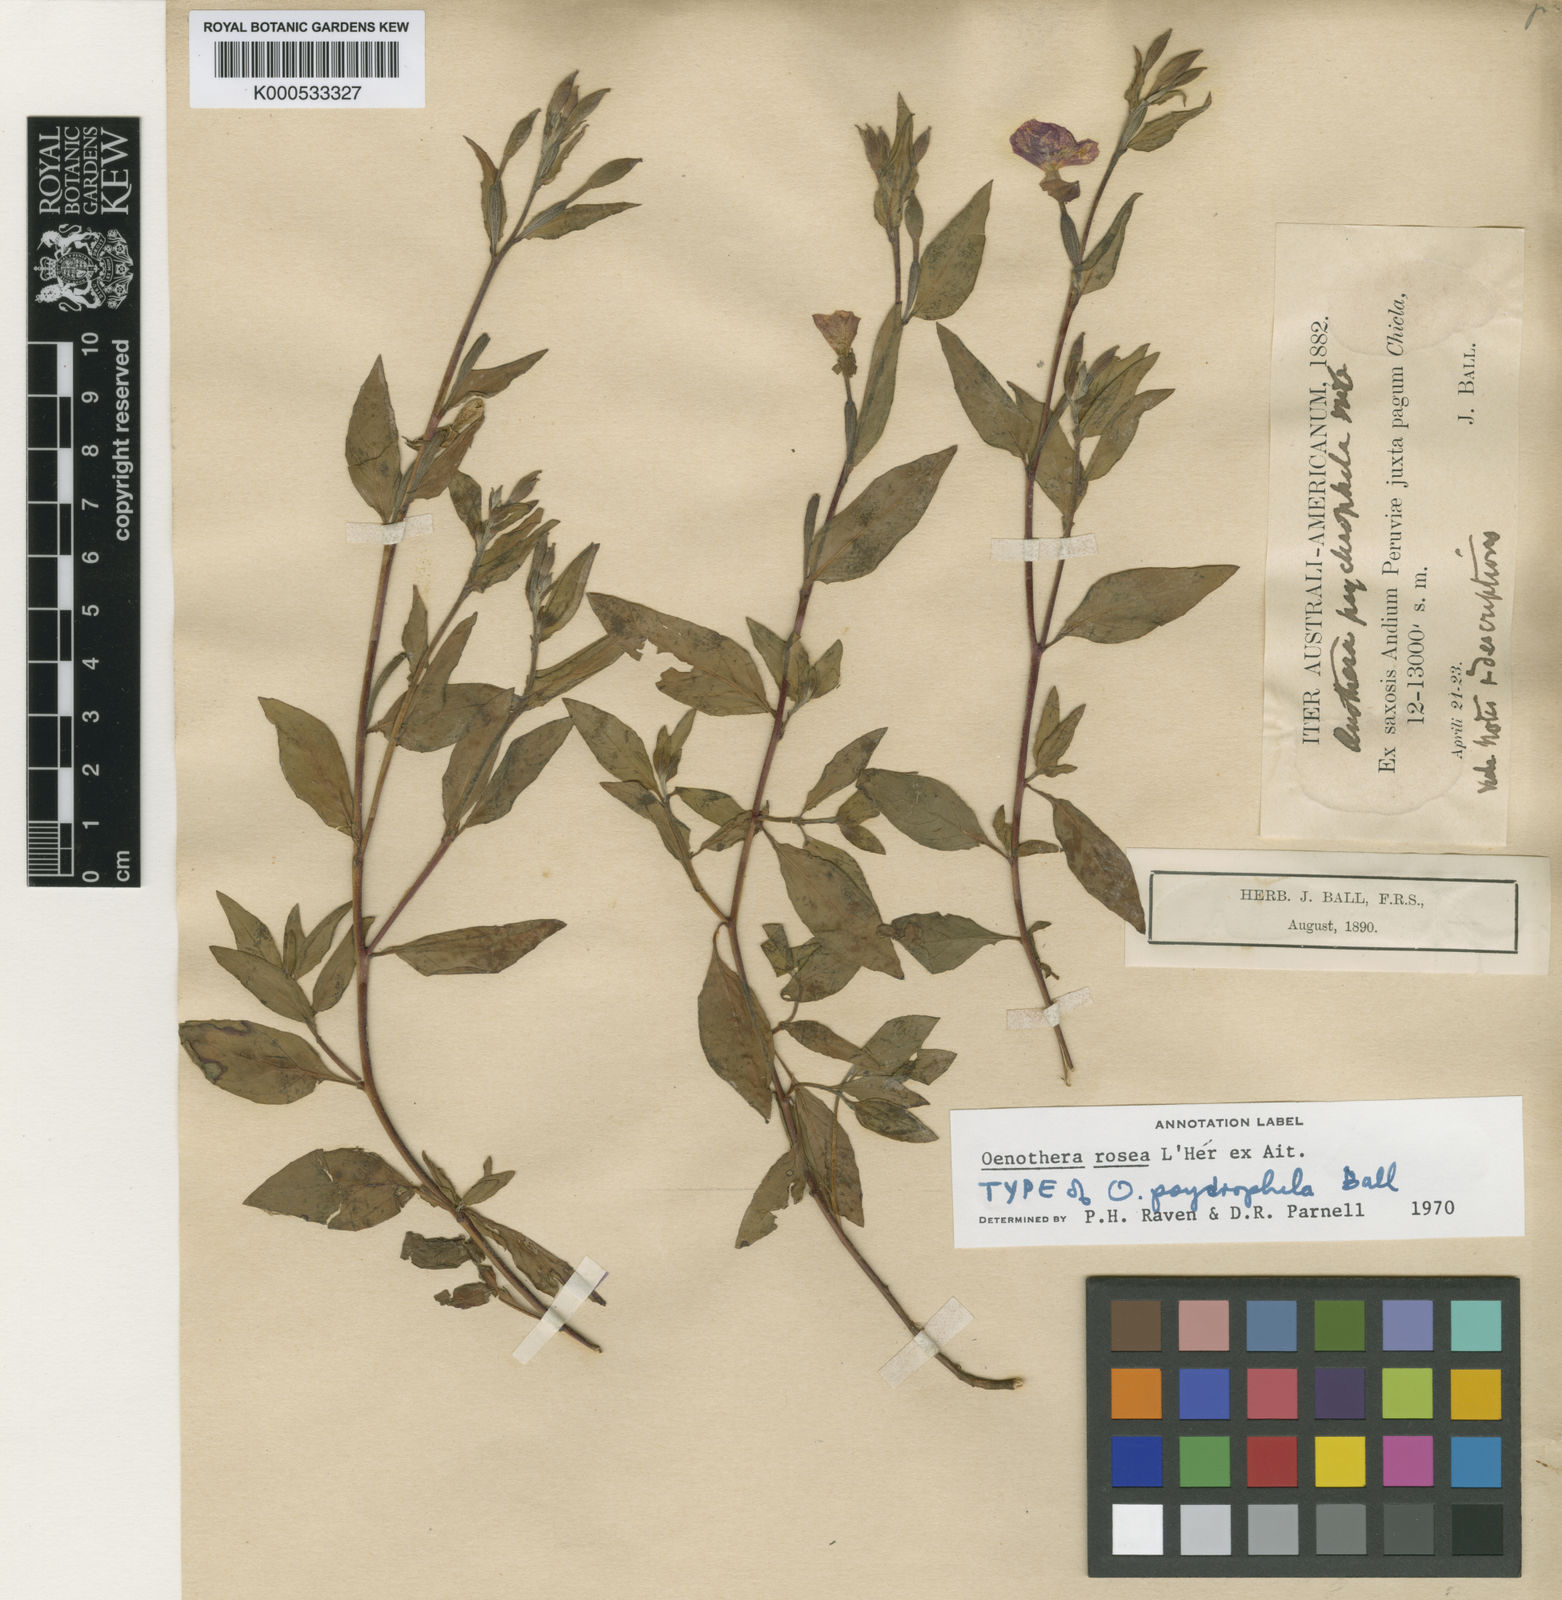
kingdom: Plantae
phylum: Tracheophyta
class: Magnoliopsida
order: Myrtales
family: Onagraceae
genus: Oenothera
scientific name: Oenothera
